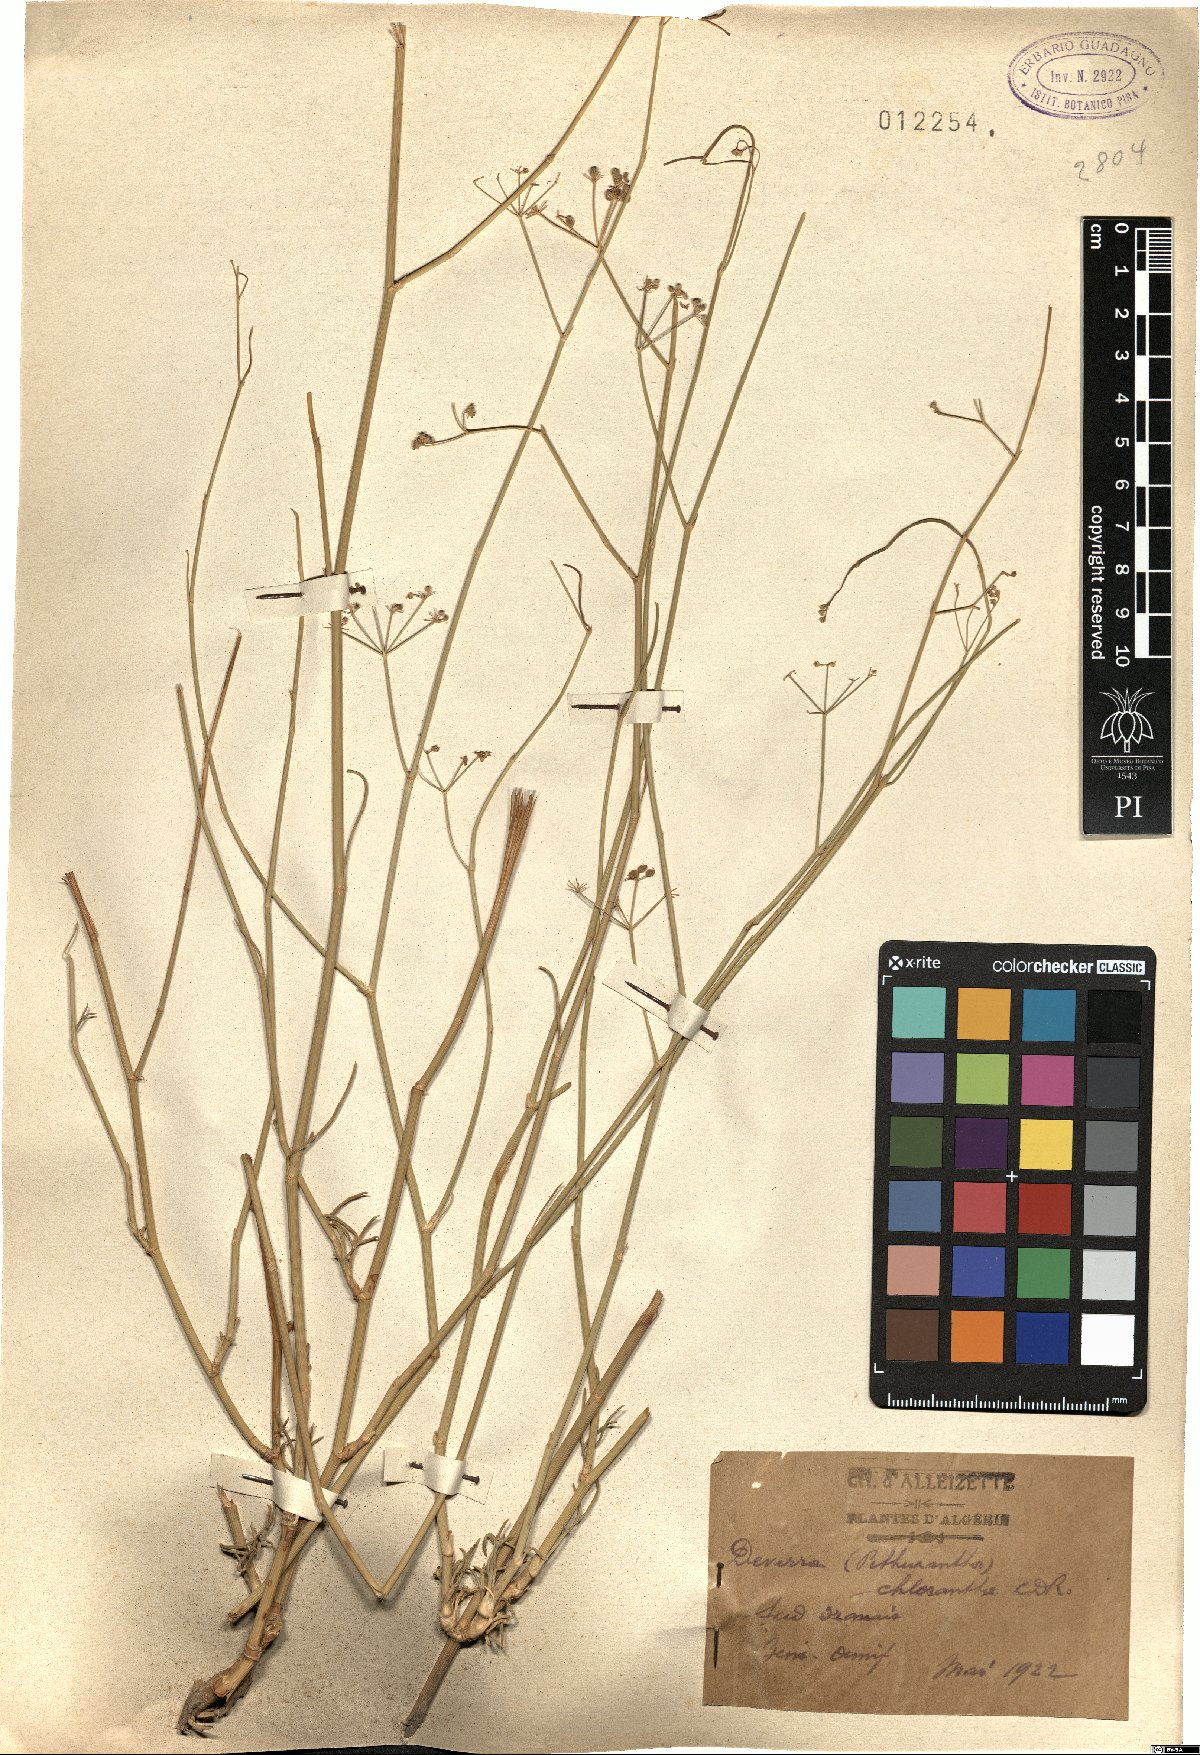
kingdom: Plantae
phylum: Tracheophyta
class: Magnoliopsida
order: Apiales
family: Apiaceae
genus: Deverra
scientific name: Deverra denudata
